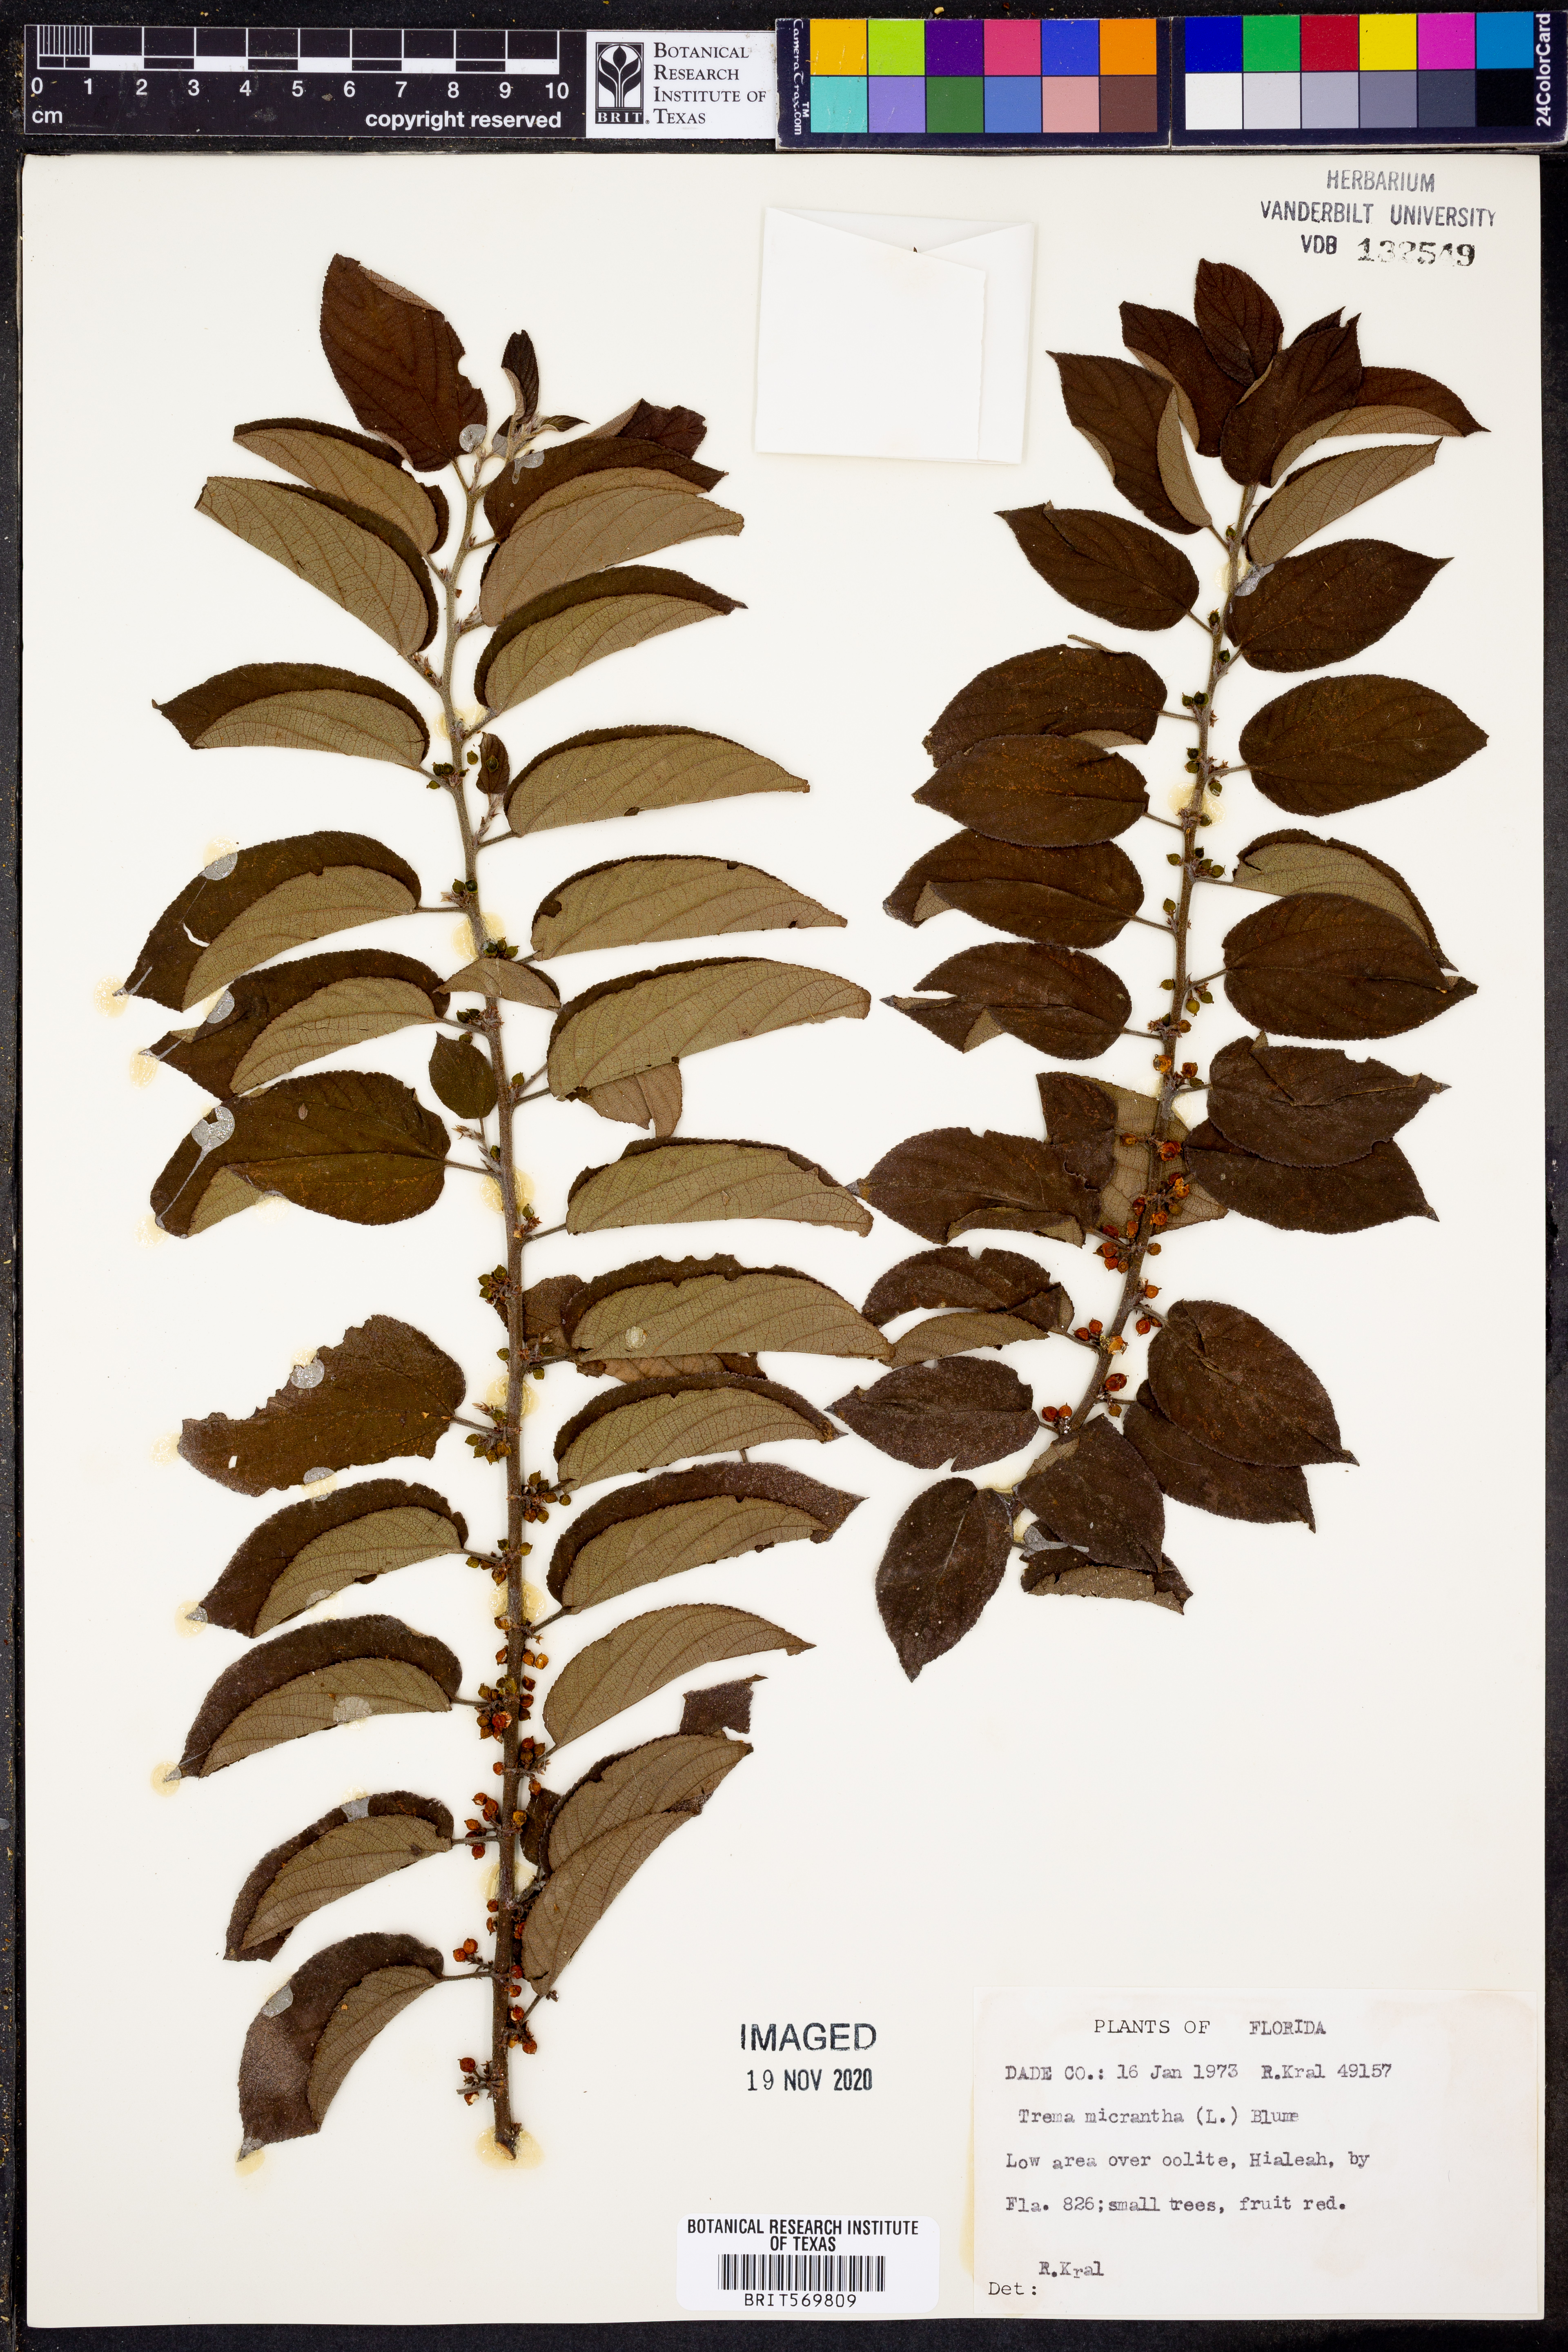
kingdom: Plantae
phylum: Tracheophyta
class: Magnoliopsida
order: Rosales
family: Cannabaceae
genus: Trema
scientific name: Trema micranthum
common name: Jamaican nettletree
